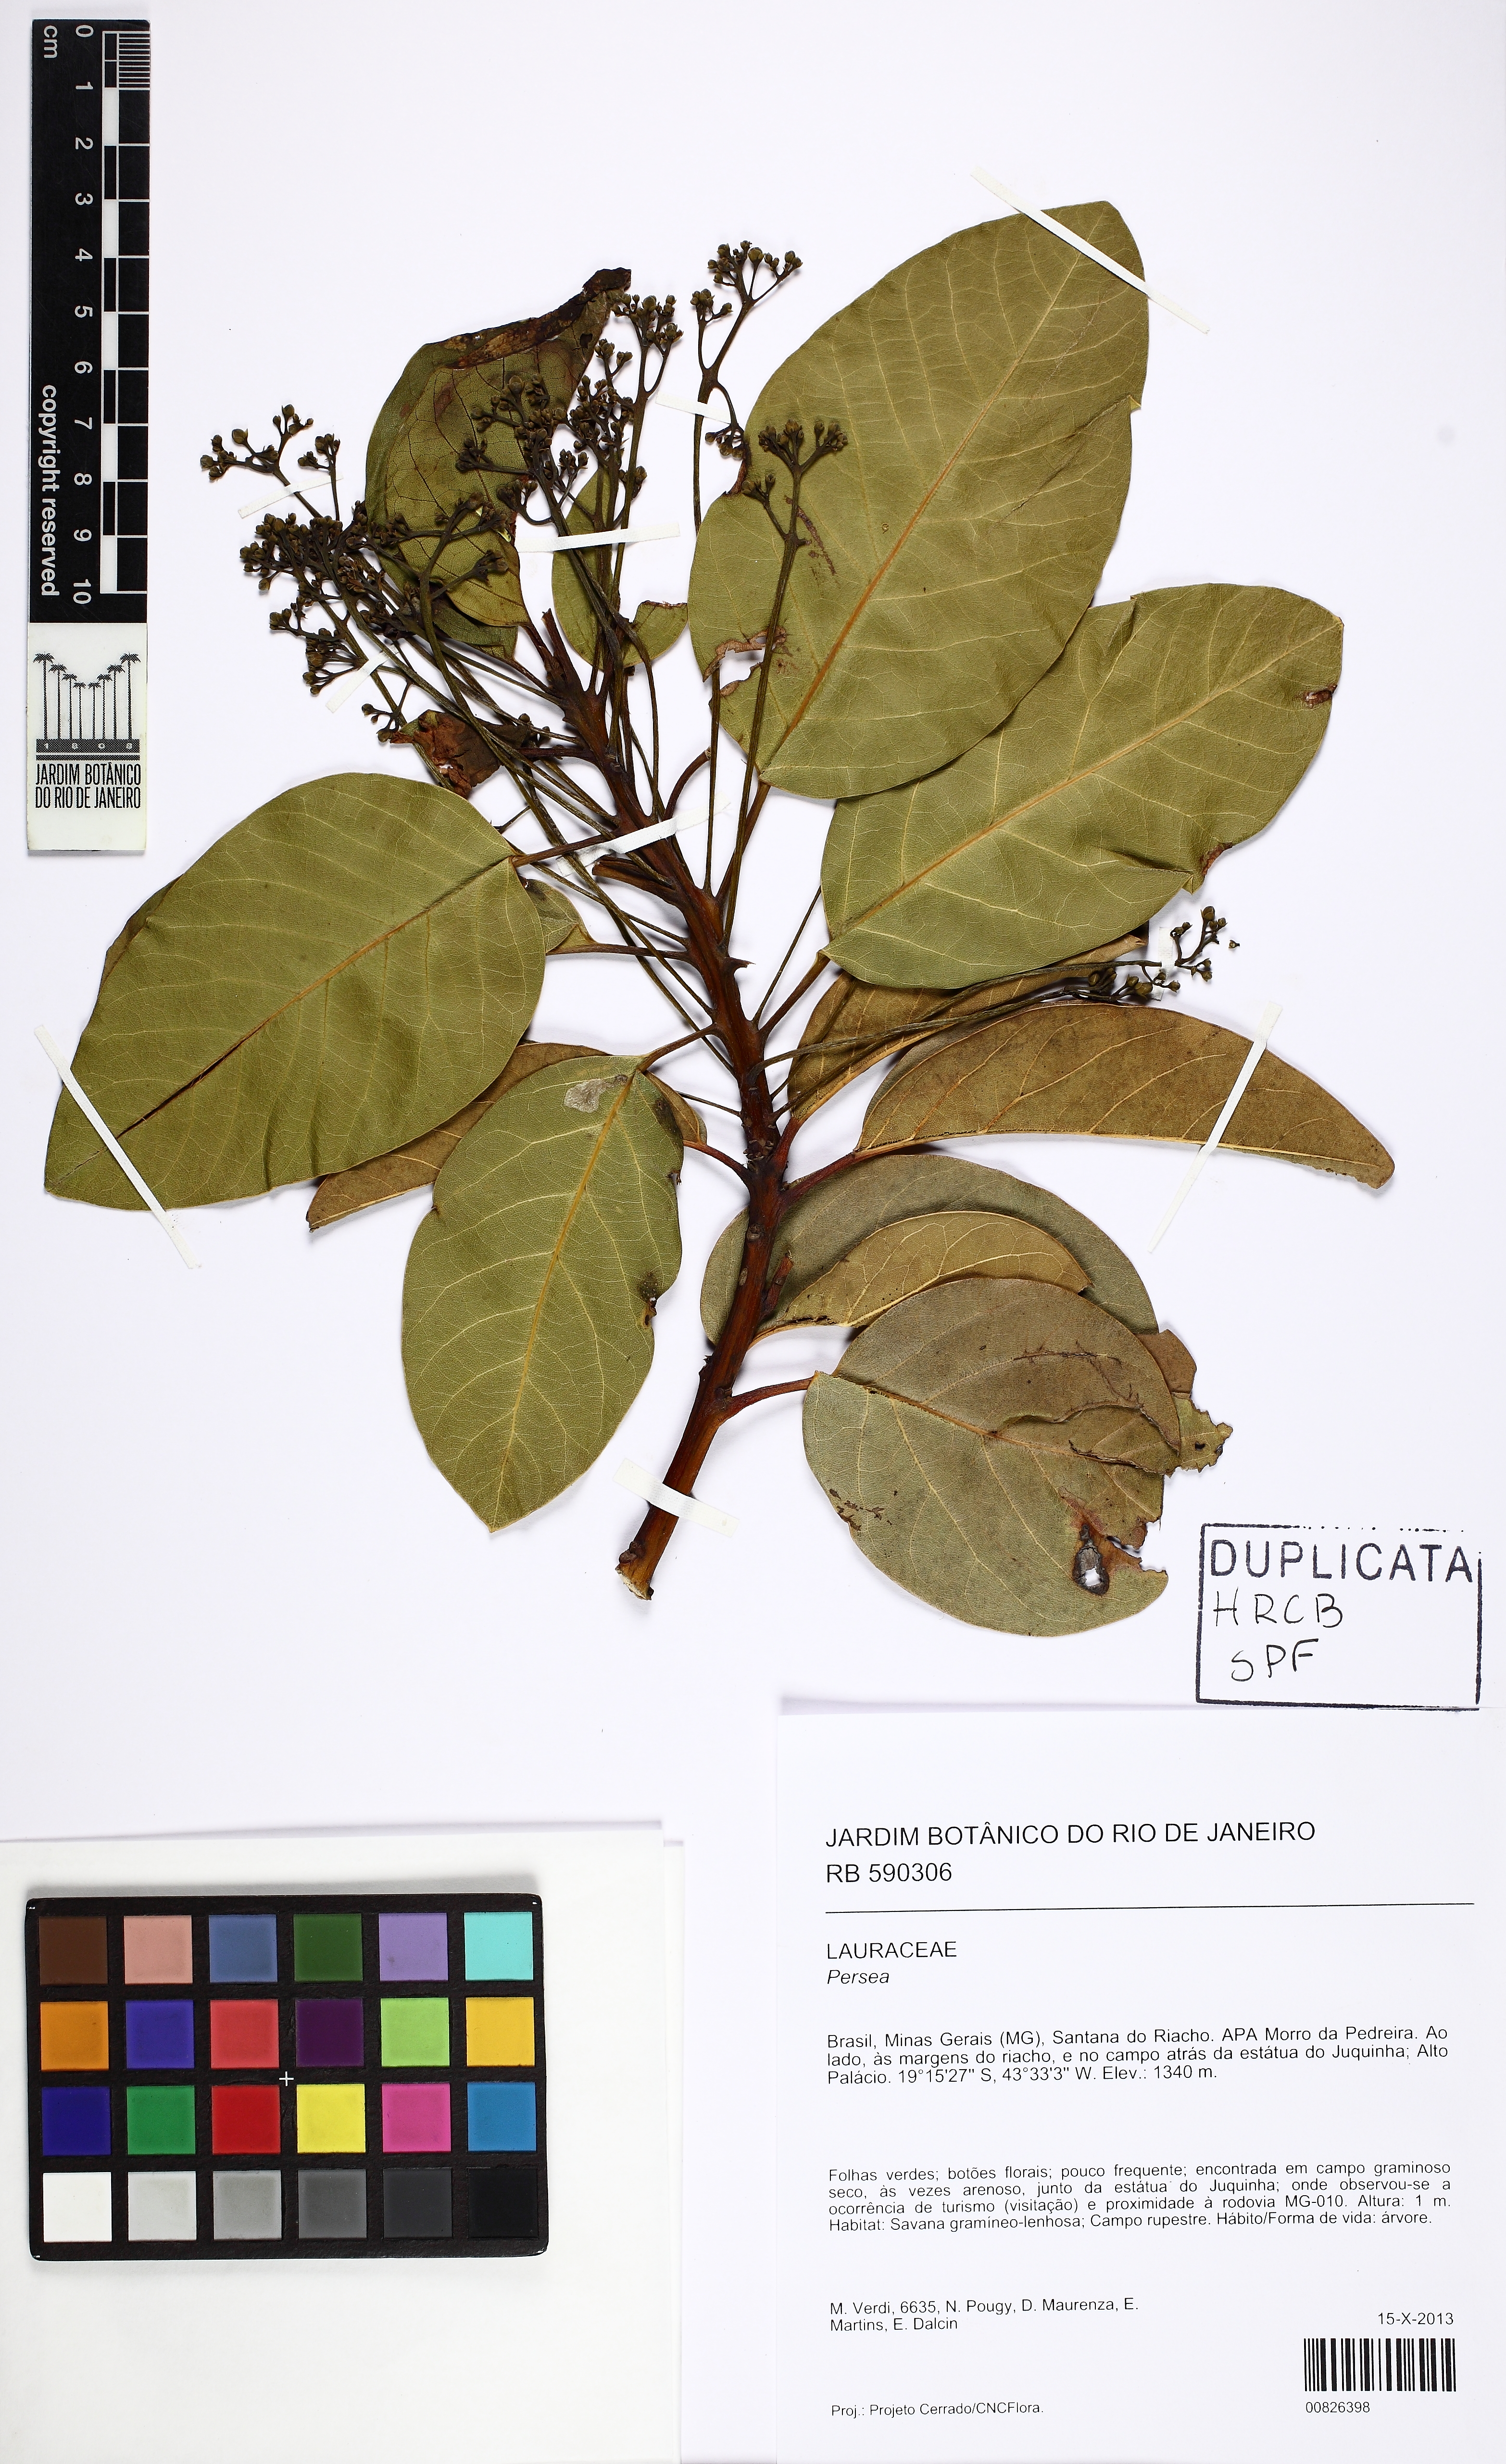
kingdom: Plantae
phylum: Tracheophyta
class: Magnoliopsida
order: Laurales
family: Lauraceae
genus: Persea
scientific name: Persea venosa
